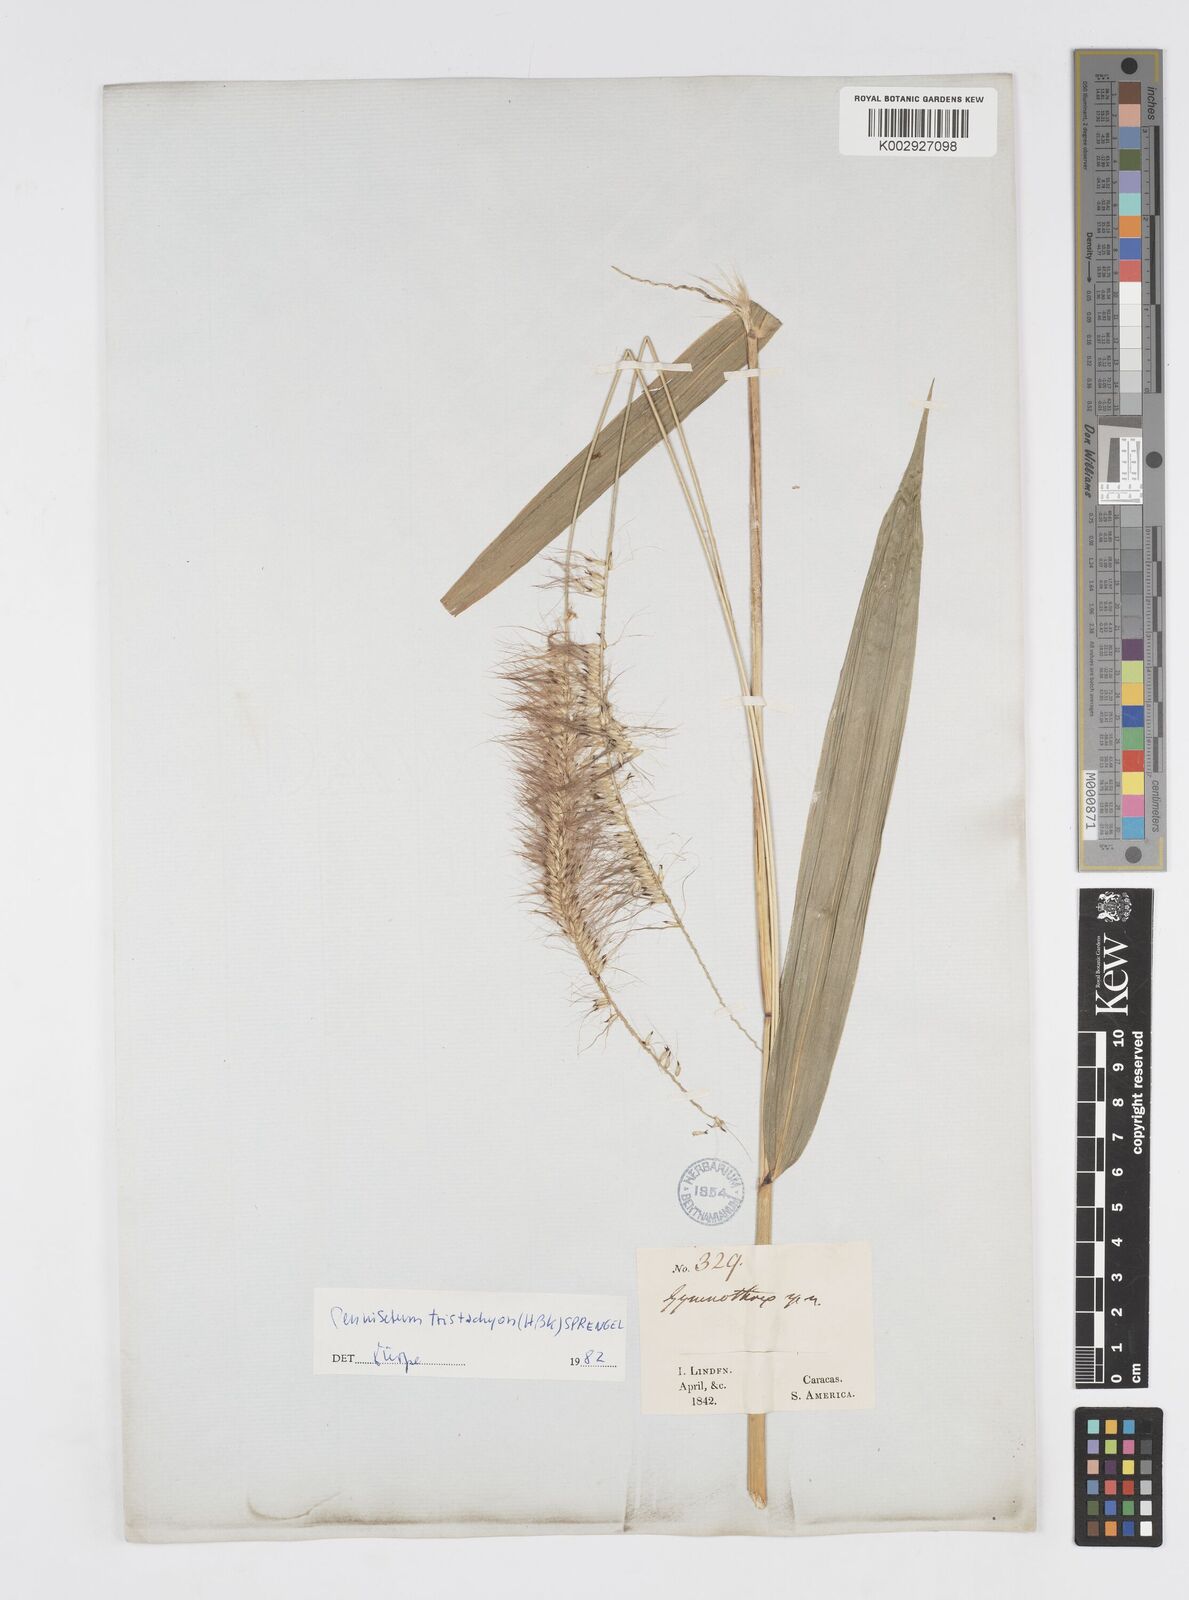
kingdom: Plantae
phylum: Tracheophyta
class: Liliopsida
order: Poales
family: Poaceae
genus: Cenchrus
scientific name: Cenchrus tristachyus
